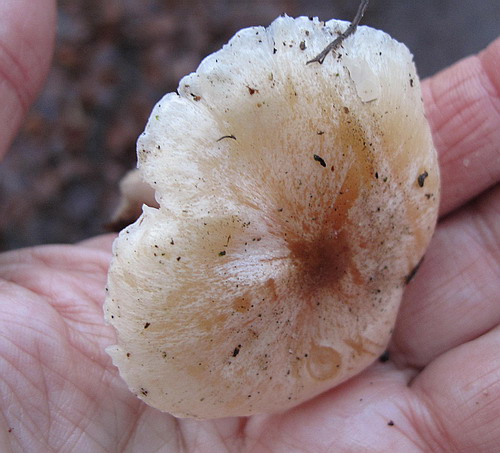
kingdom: Fungi
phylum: Basidiomycota
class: Agaricomycetes
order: Agaricales
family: Hygrophoraceae
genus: Hygrophorus
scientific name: Hygrophorus unicolor
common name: orangeøjet sneglehat
